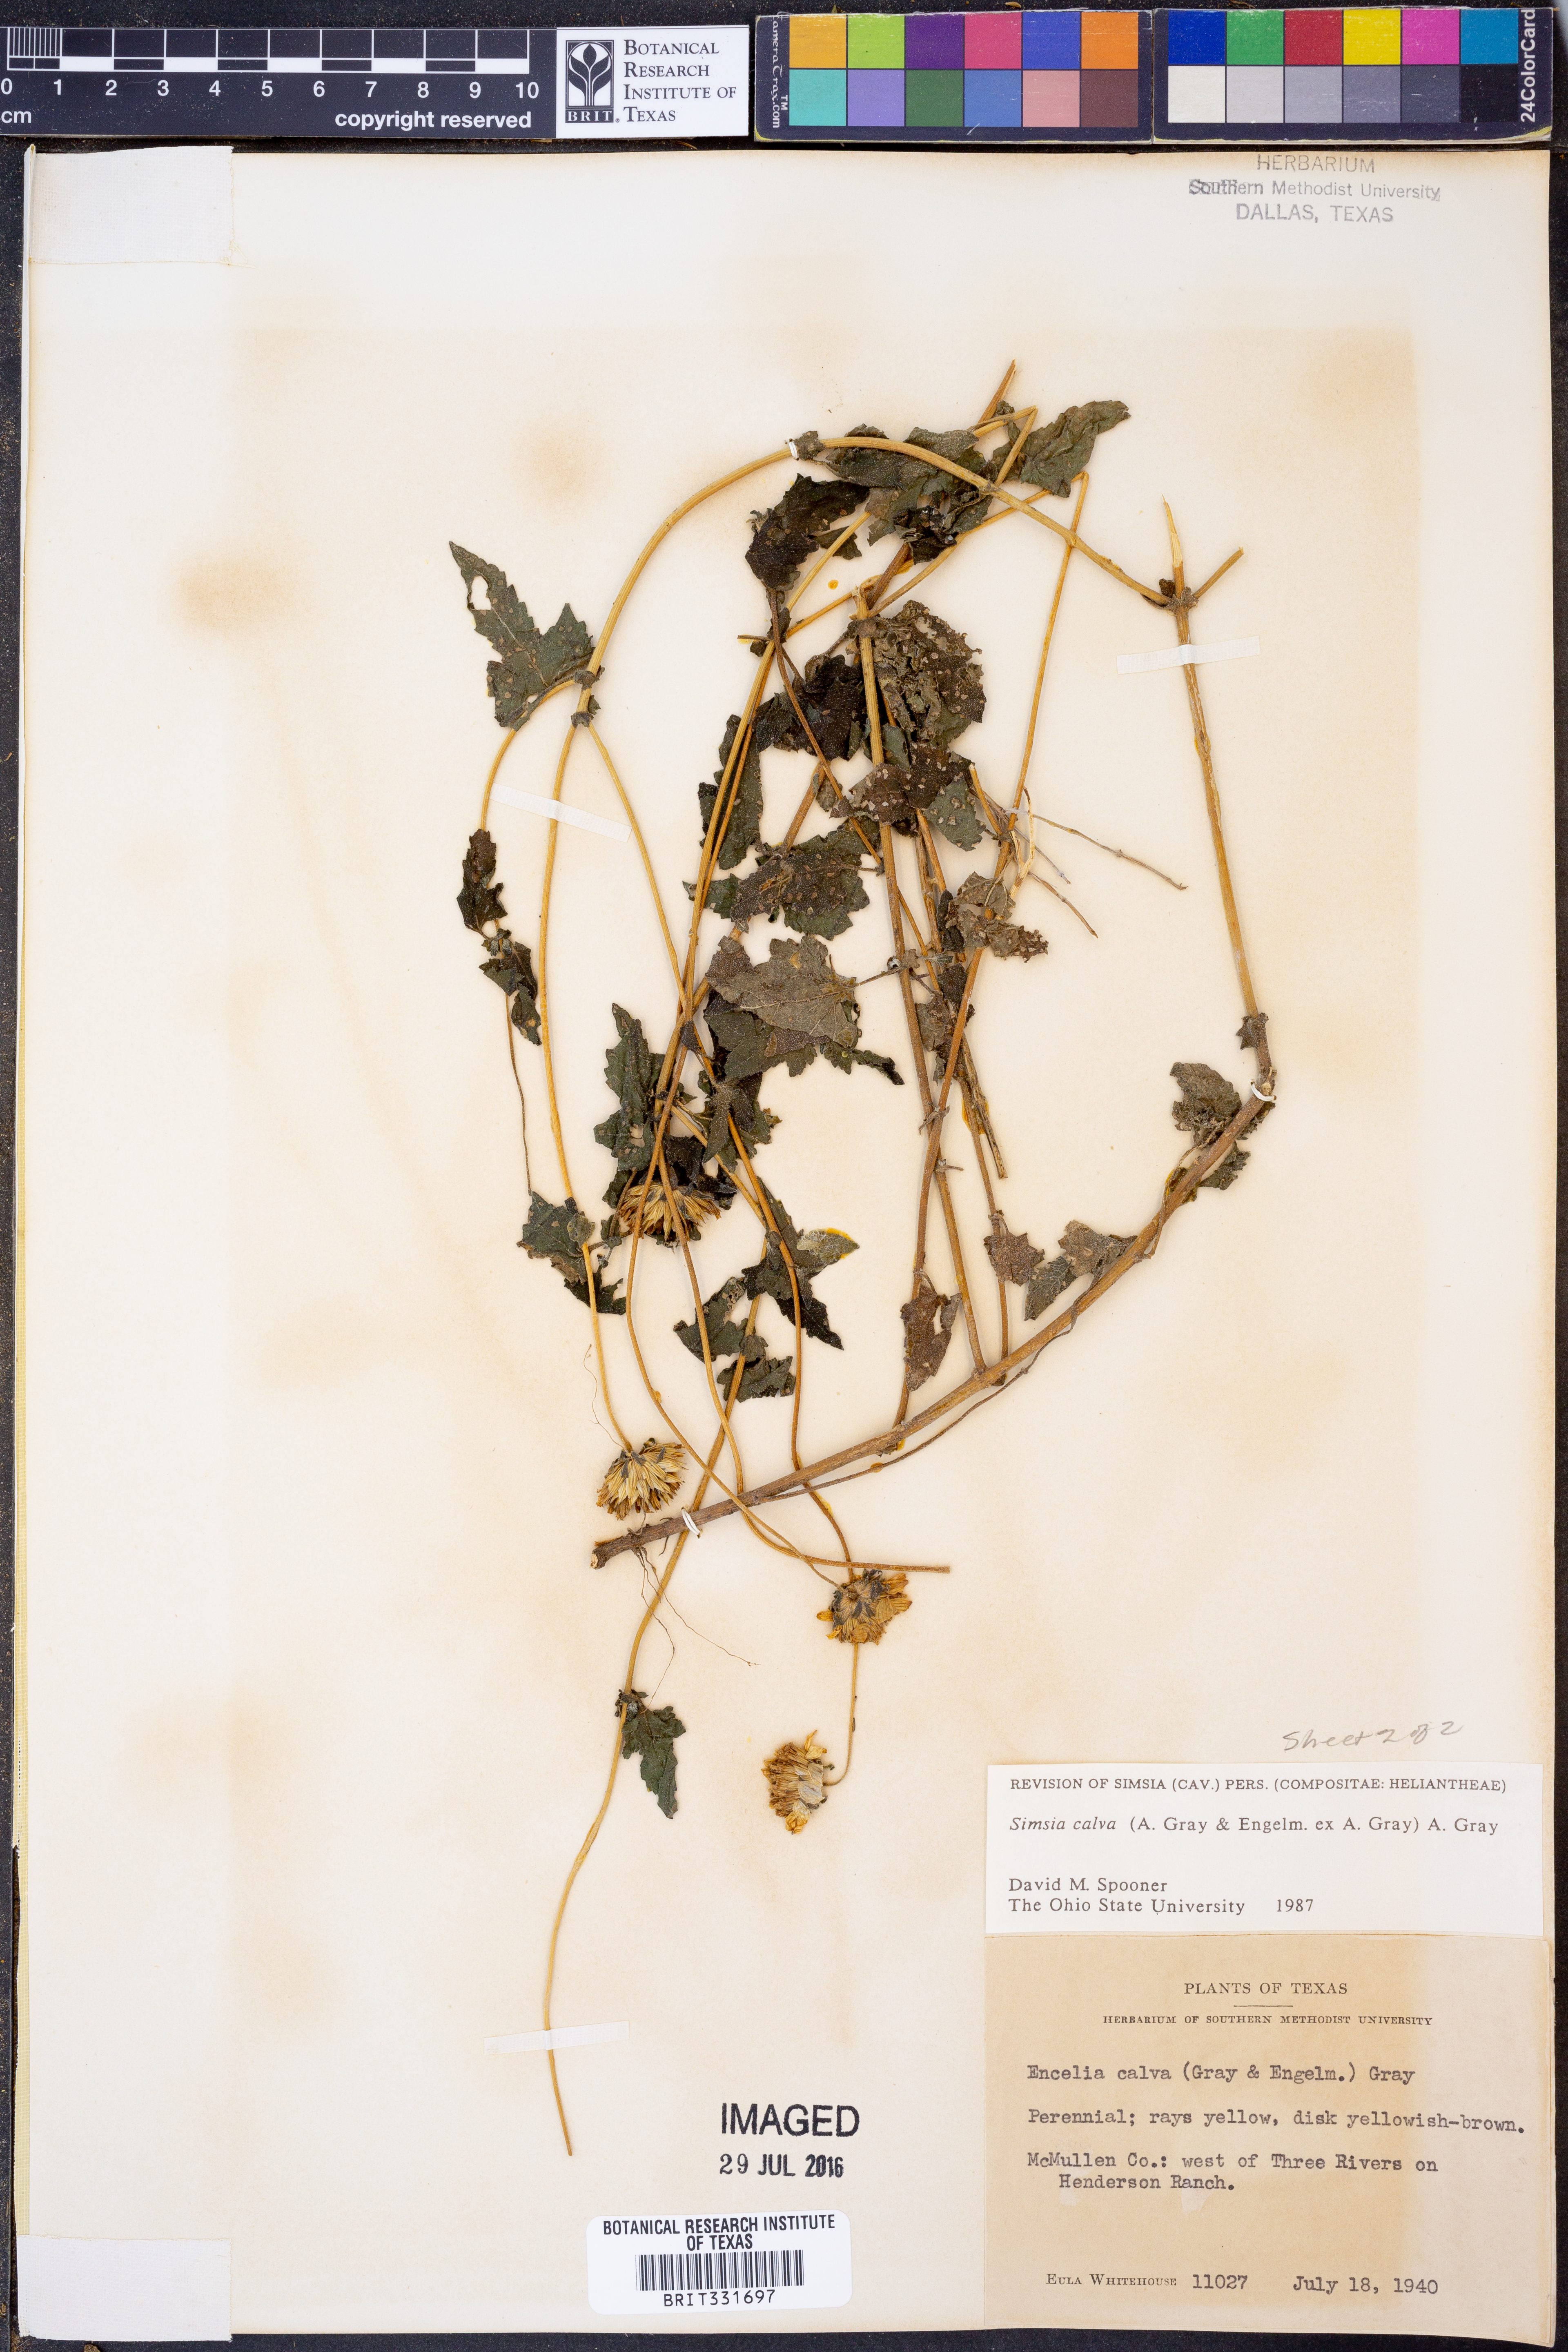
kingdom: Plantae
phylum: Tracheophyta
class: Magnoliopsida
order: Asterales
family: Asteraceae
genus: Simsia
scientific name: Simsia calva
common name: Awnless bush-sunflower
